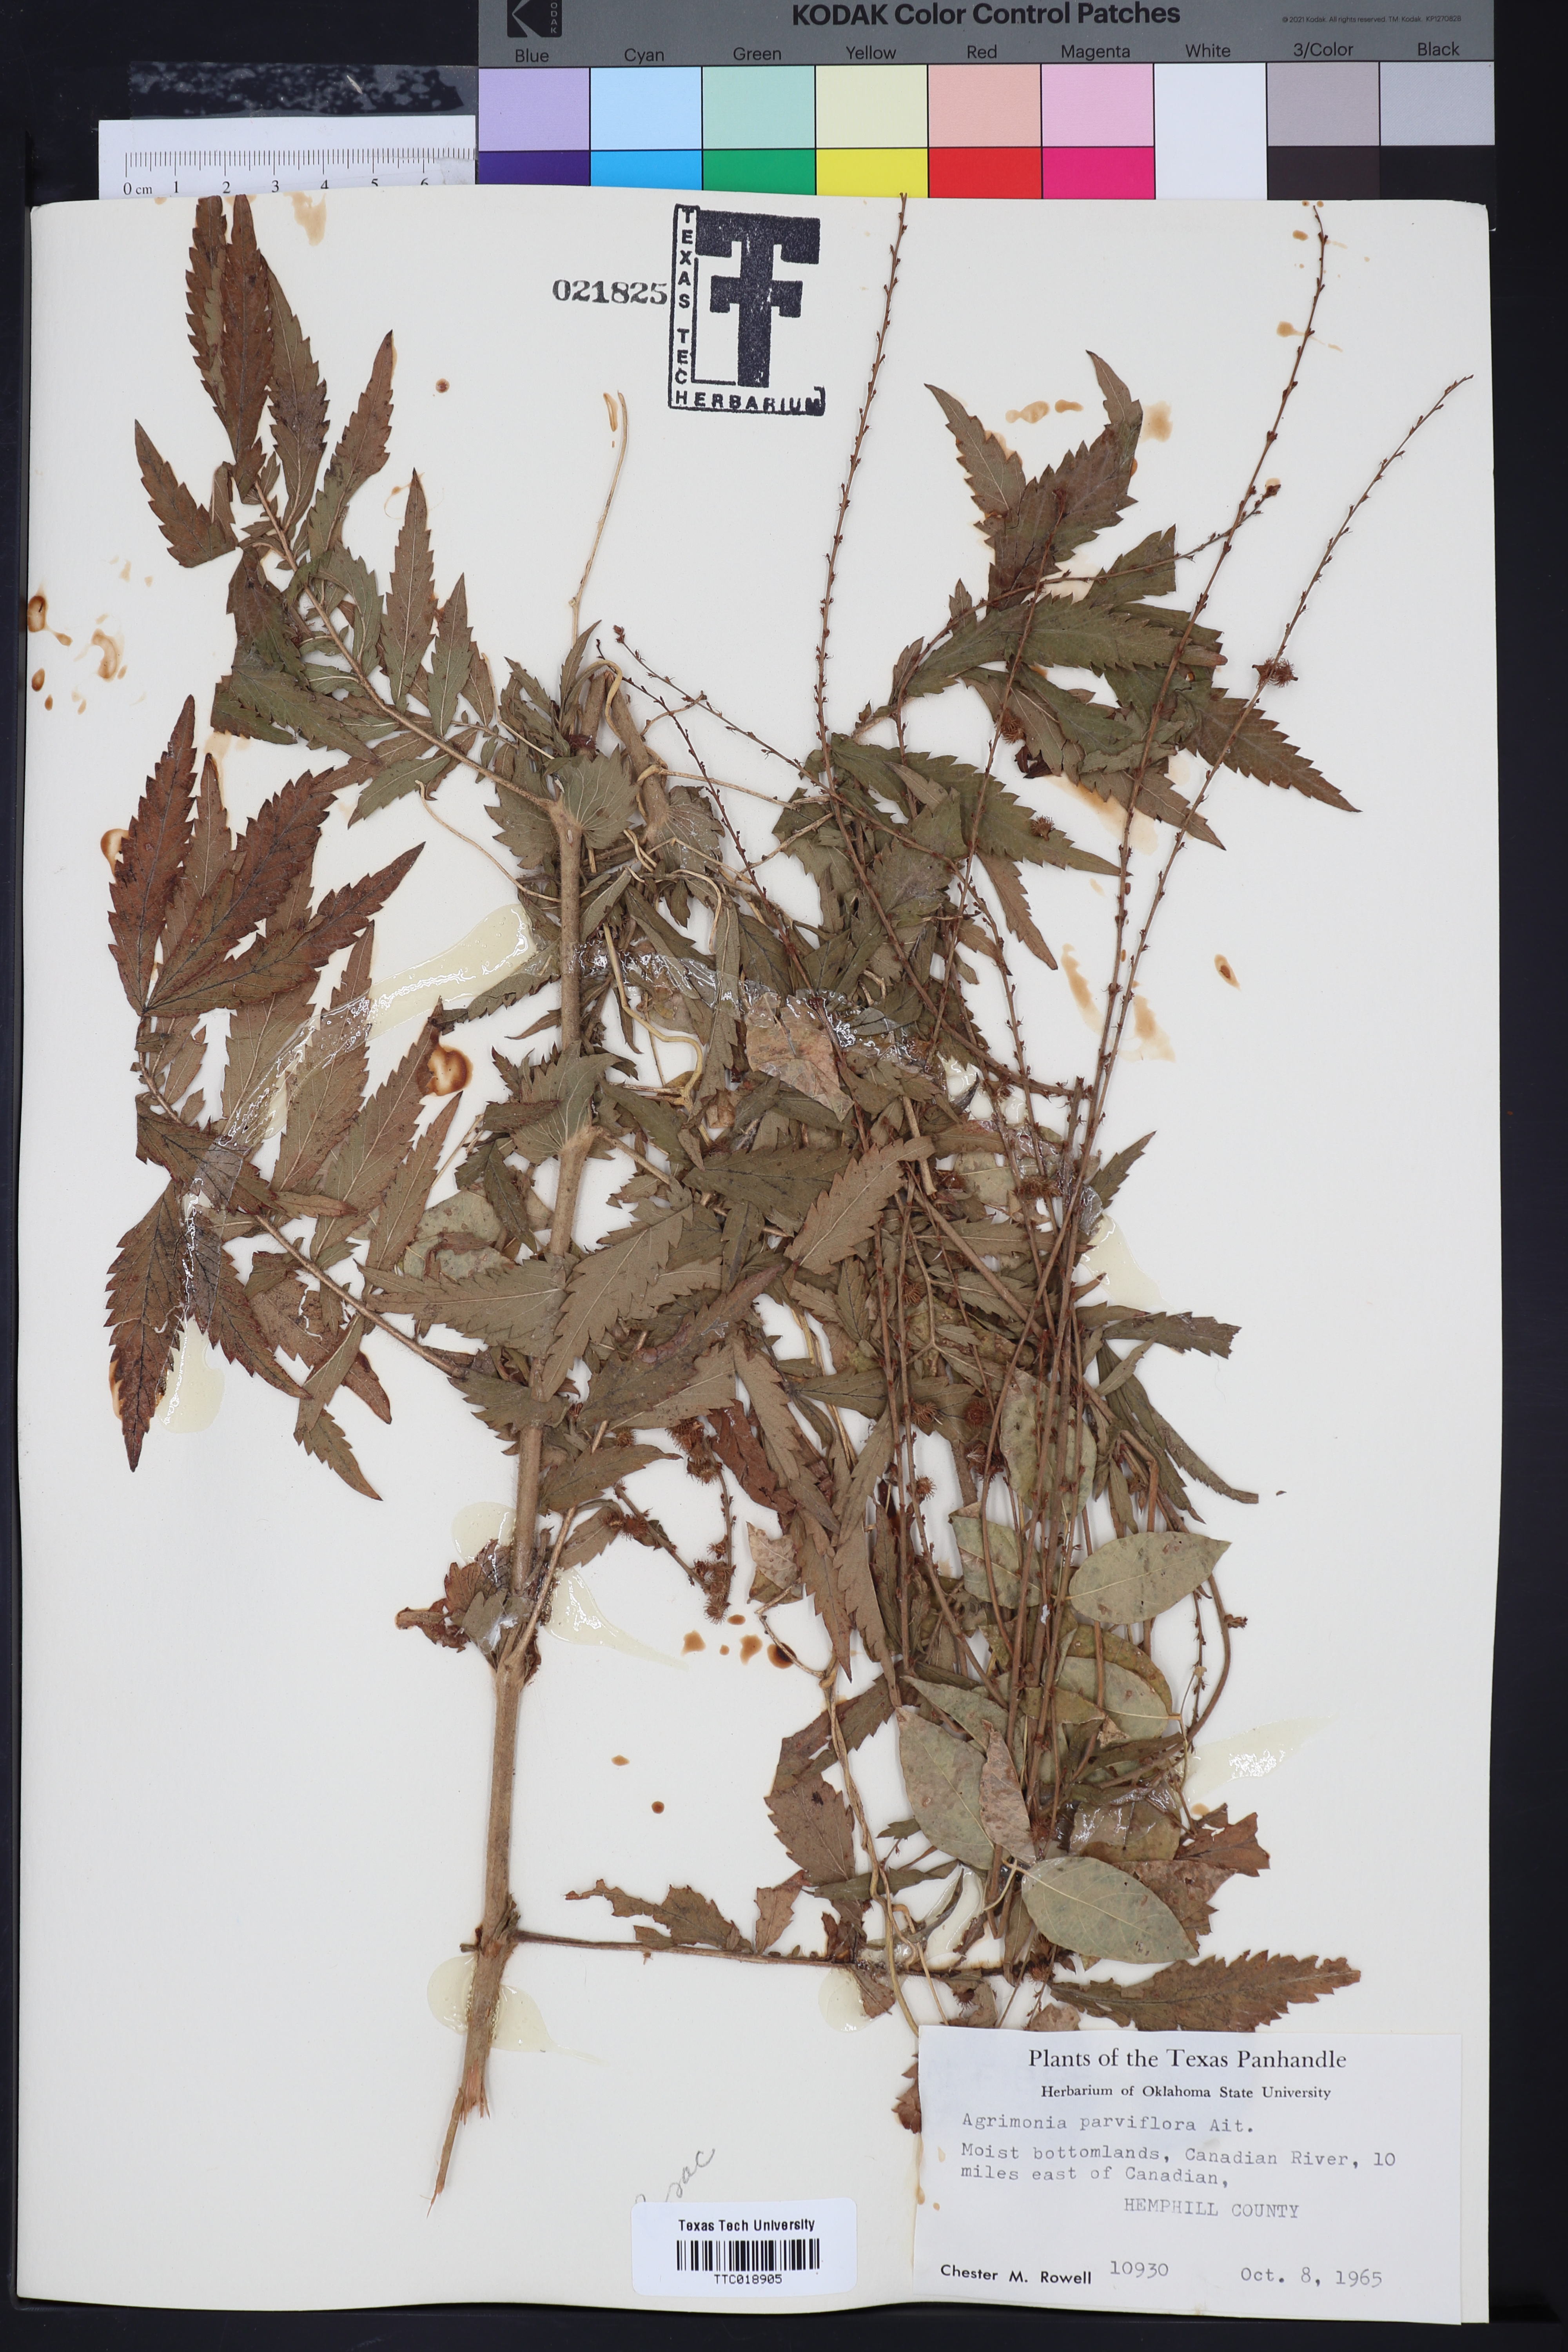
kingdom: Plantae
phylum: Tracheophyta
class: Magnoliopsida
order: Rosales
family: Rosaceae
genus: Agrimonia
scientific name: Agrimonia parviflora
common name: Harvest-lice
